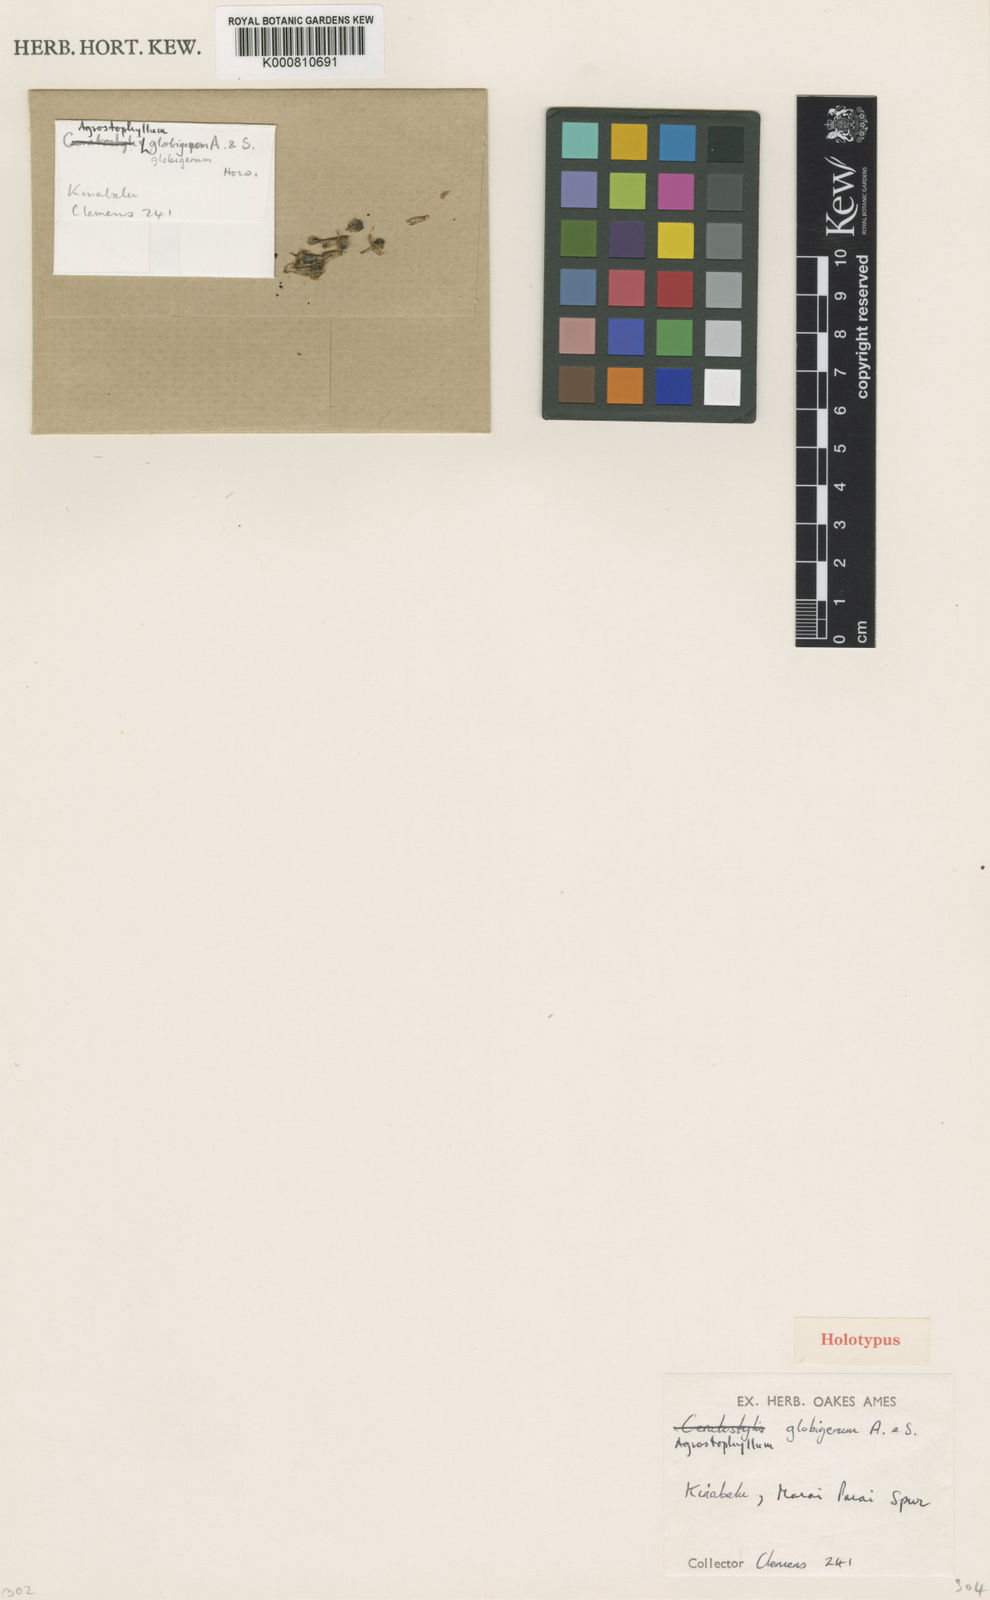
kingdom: Plantae
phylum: Tracheophyta
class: Liliopsida
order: Asparagales
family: Orchidaceae
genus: Agrostophyllum
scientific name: Agrostophyllum globigerum
